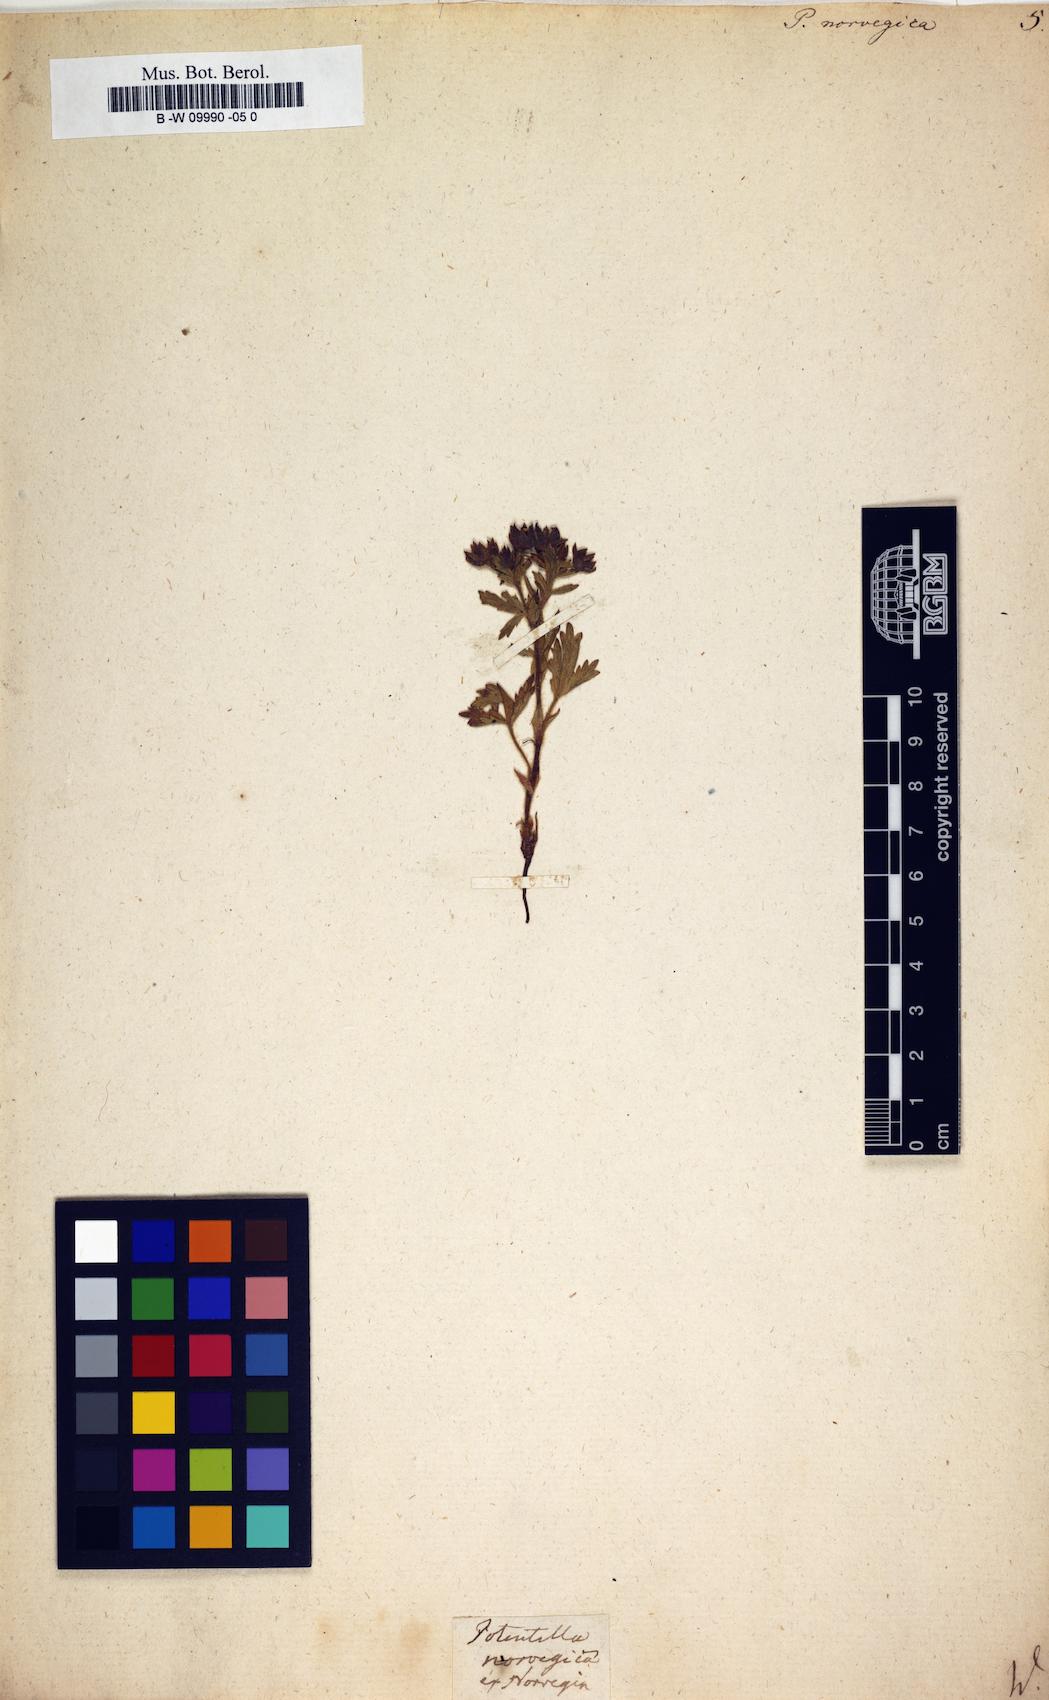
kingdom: Plantae
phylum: Tracheophyta
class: Magnoliopsida
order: Rosales
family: Rosaceae
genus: Potentilla
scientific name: Potentilla norvegica
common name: Ternate-leaved cinquefoil
